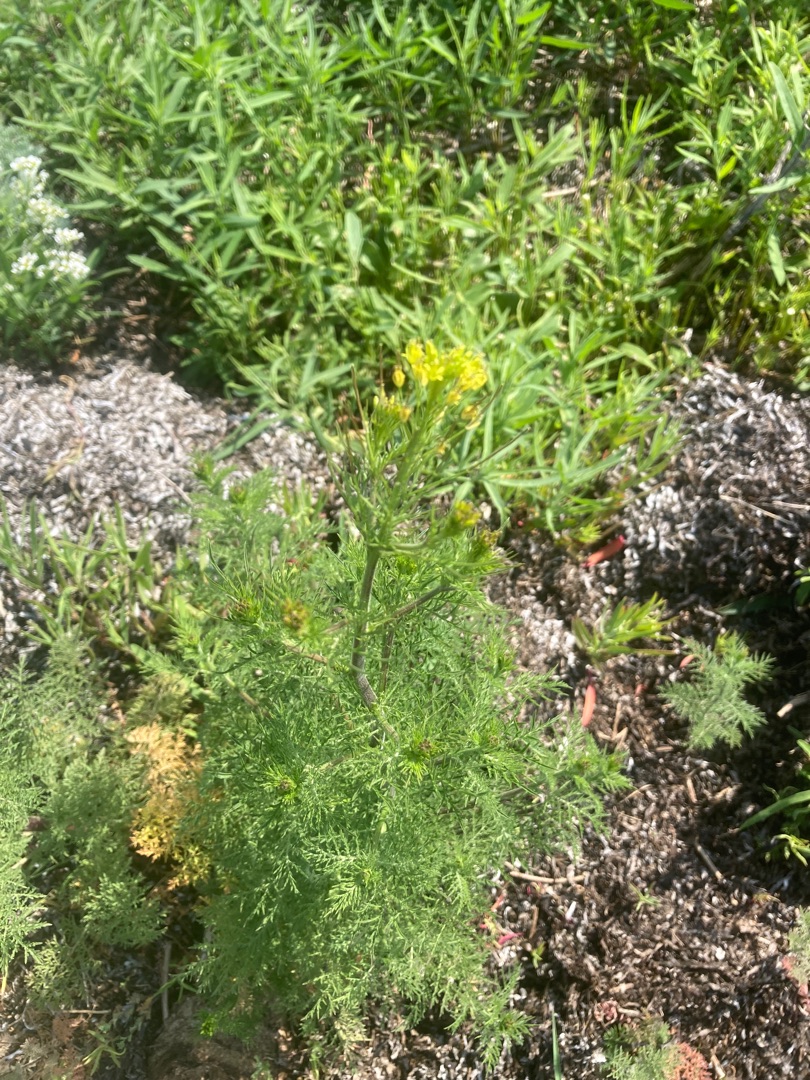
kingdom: Plantae
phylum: Tracheophyta
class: Magnoliopsida
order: Brassicales
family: Brassicaceae
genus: Descurainia
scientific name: Descurainia sophia
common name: Finbladet vejsennep
